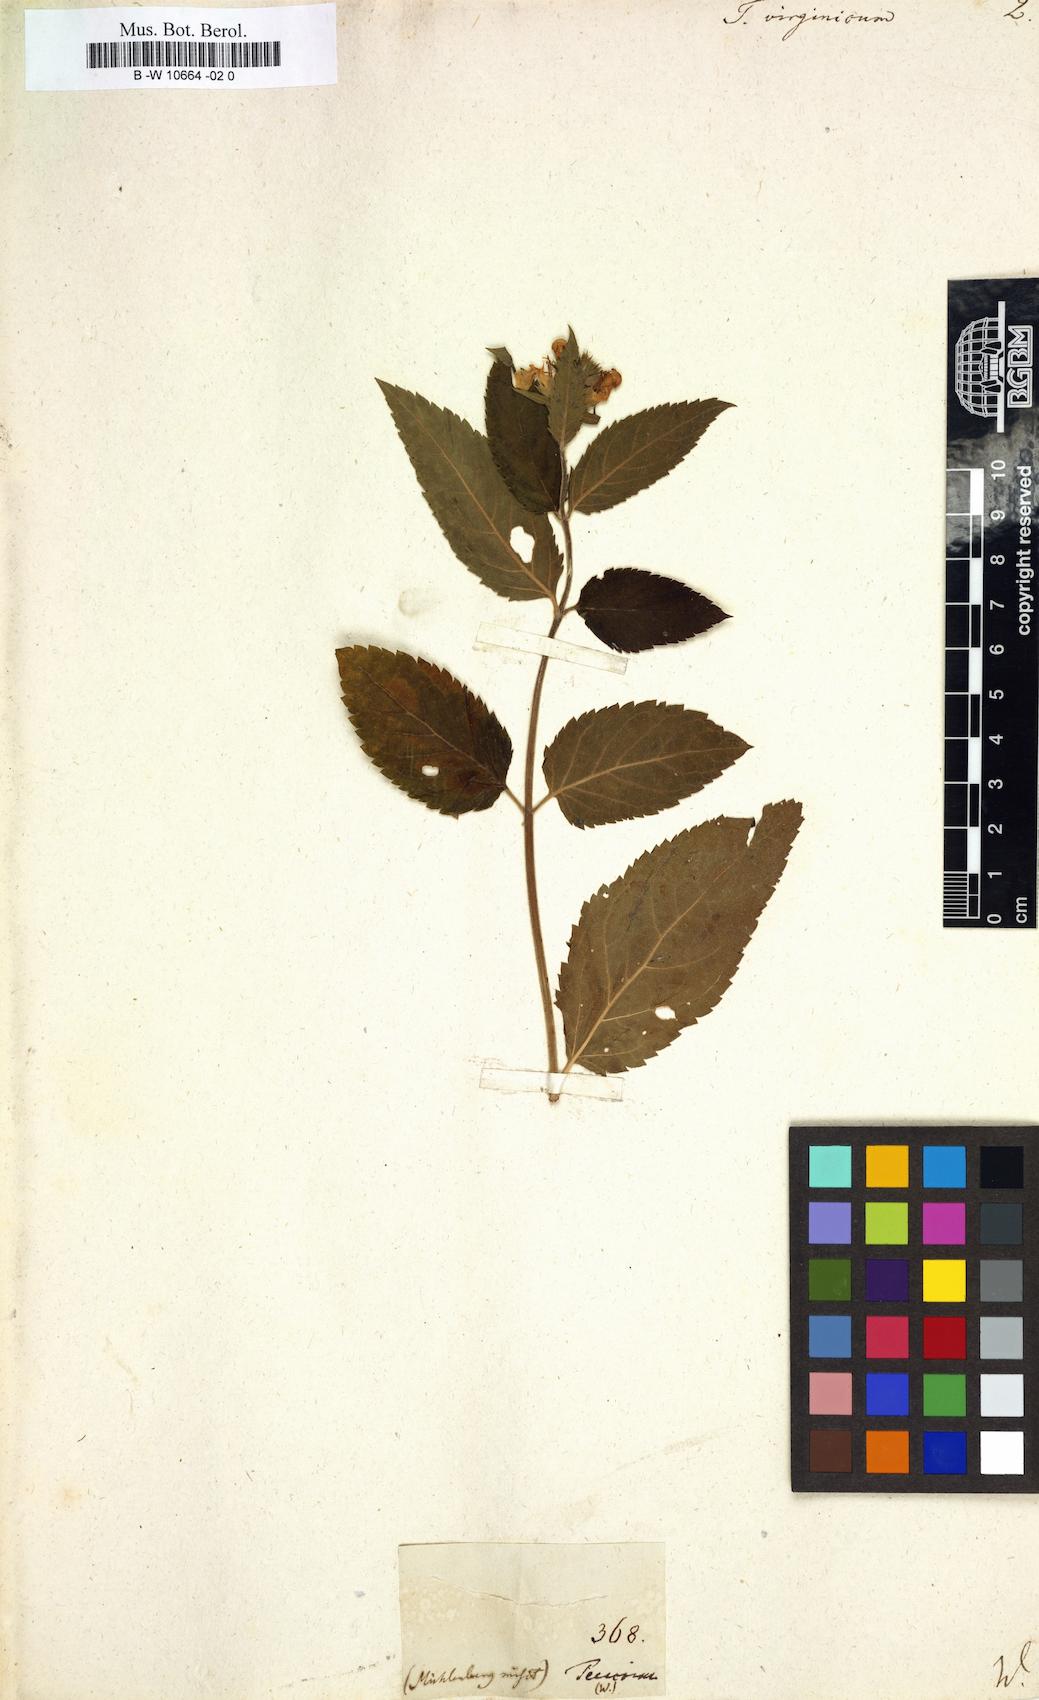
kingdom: Plantae
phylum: Tracheophyta
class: Magnoliopsida
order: Lamiales
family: Lamiaceae
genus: Teucrium
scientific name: Teucrium canadense
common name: American germander
